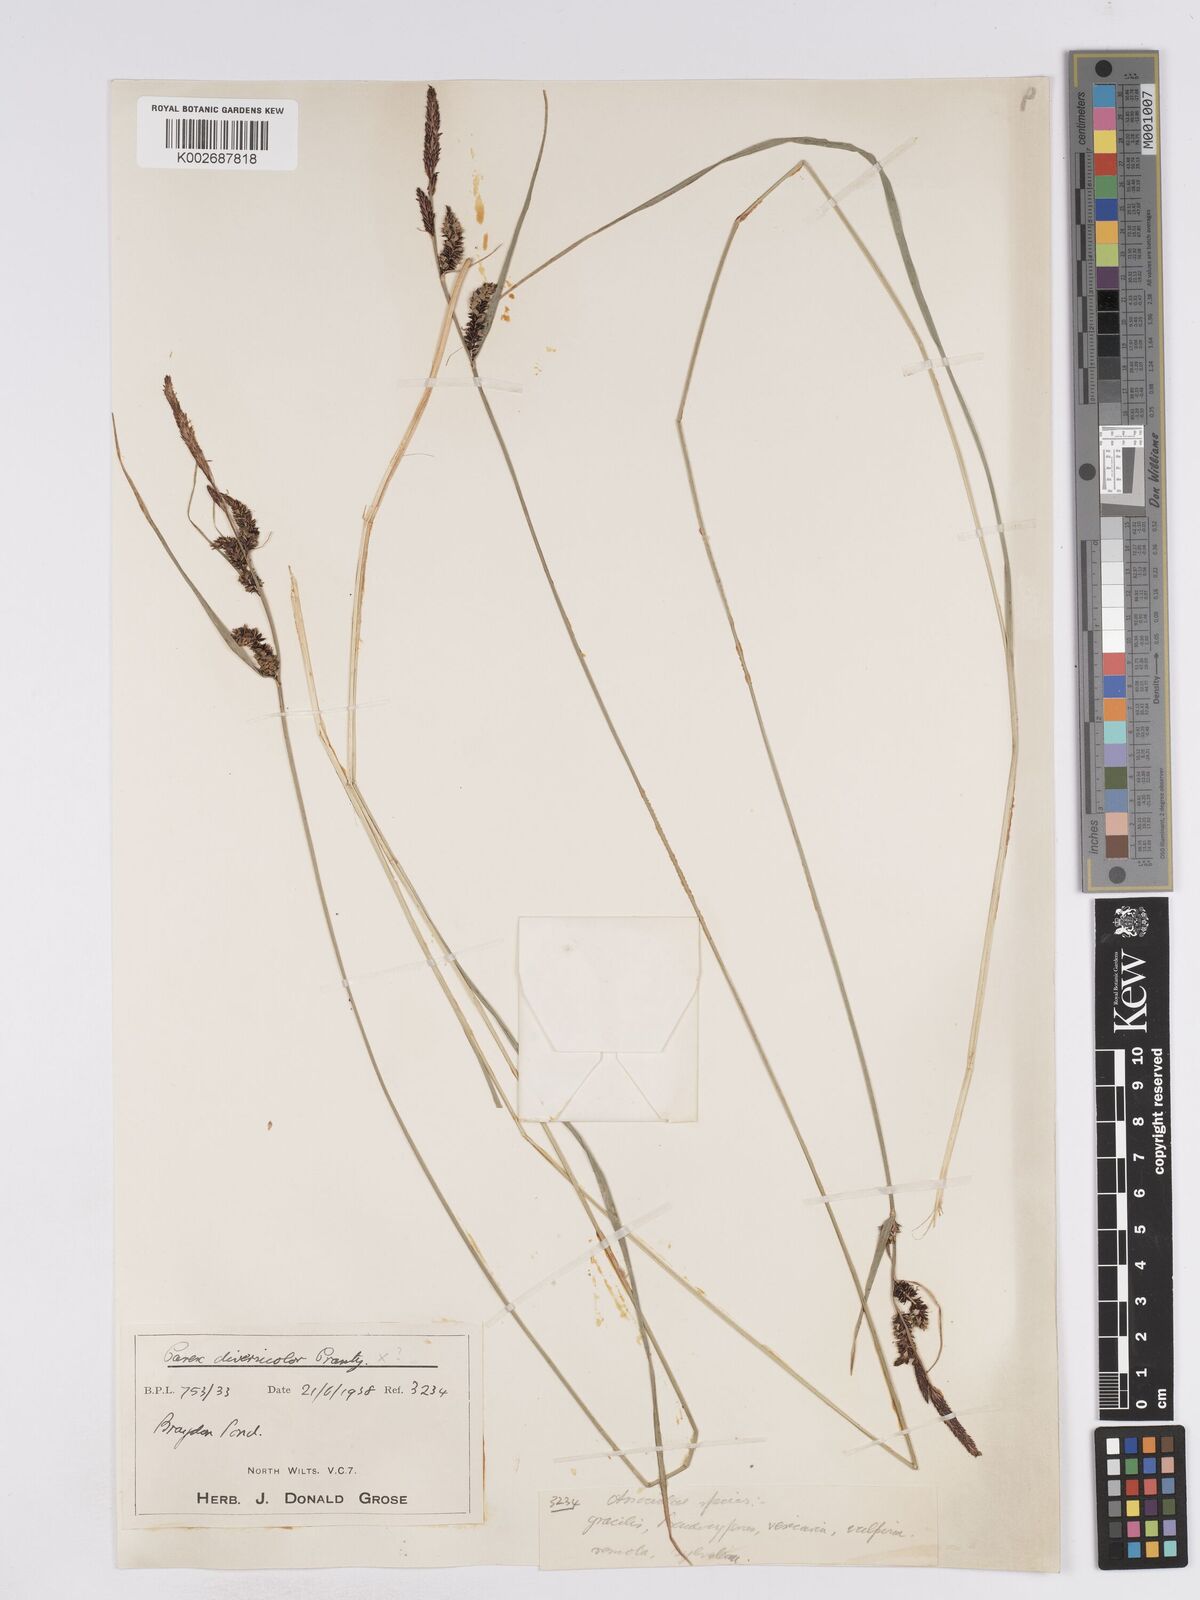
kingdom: Plantae
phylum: Tracheophyta
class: Liliopsida
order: Poales
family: Cyperaceae
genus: Carex
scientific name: Carex acuta
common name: Slender tufted-sedge
